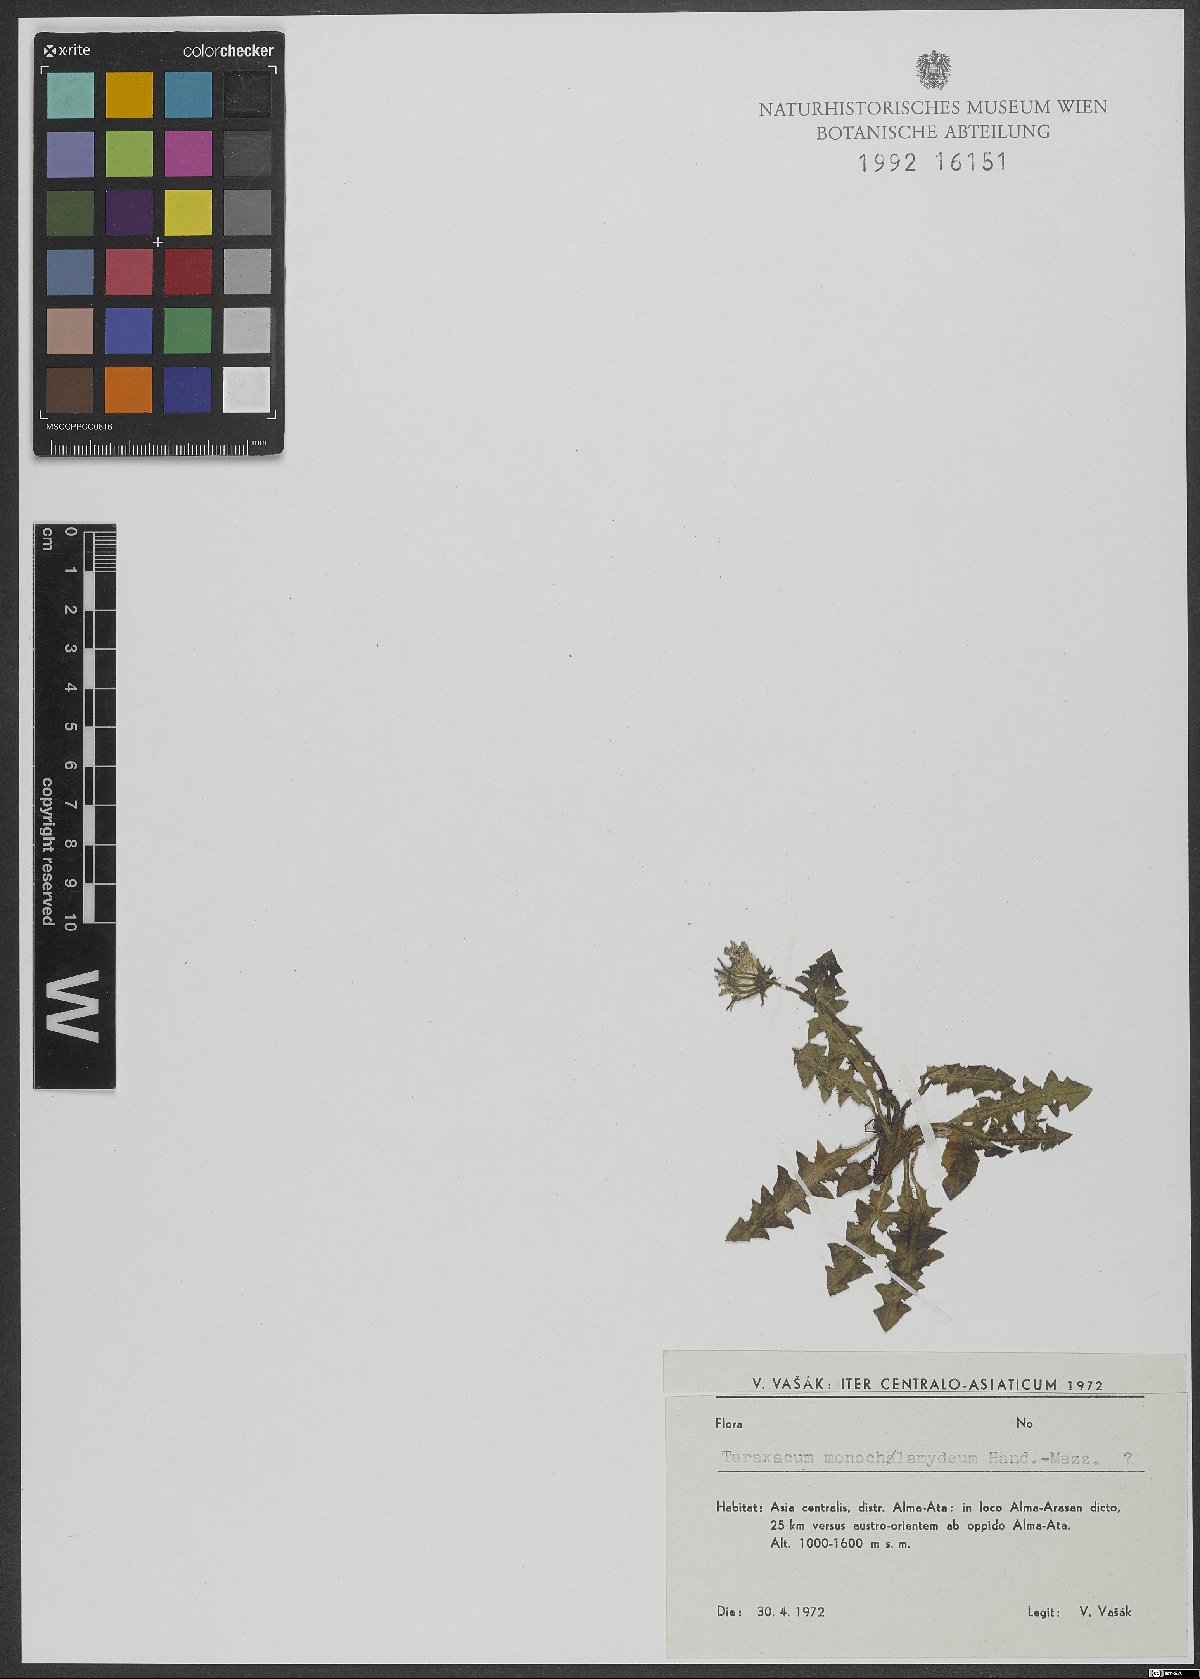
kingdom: Plantae
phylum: Tracheophyta
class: Magnoliopsida
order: Asterales
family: Asteraceae
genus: Taraxacum
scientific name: Taraxacum monochlamydeum
